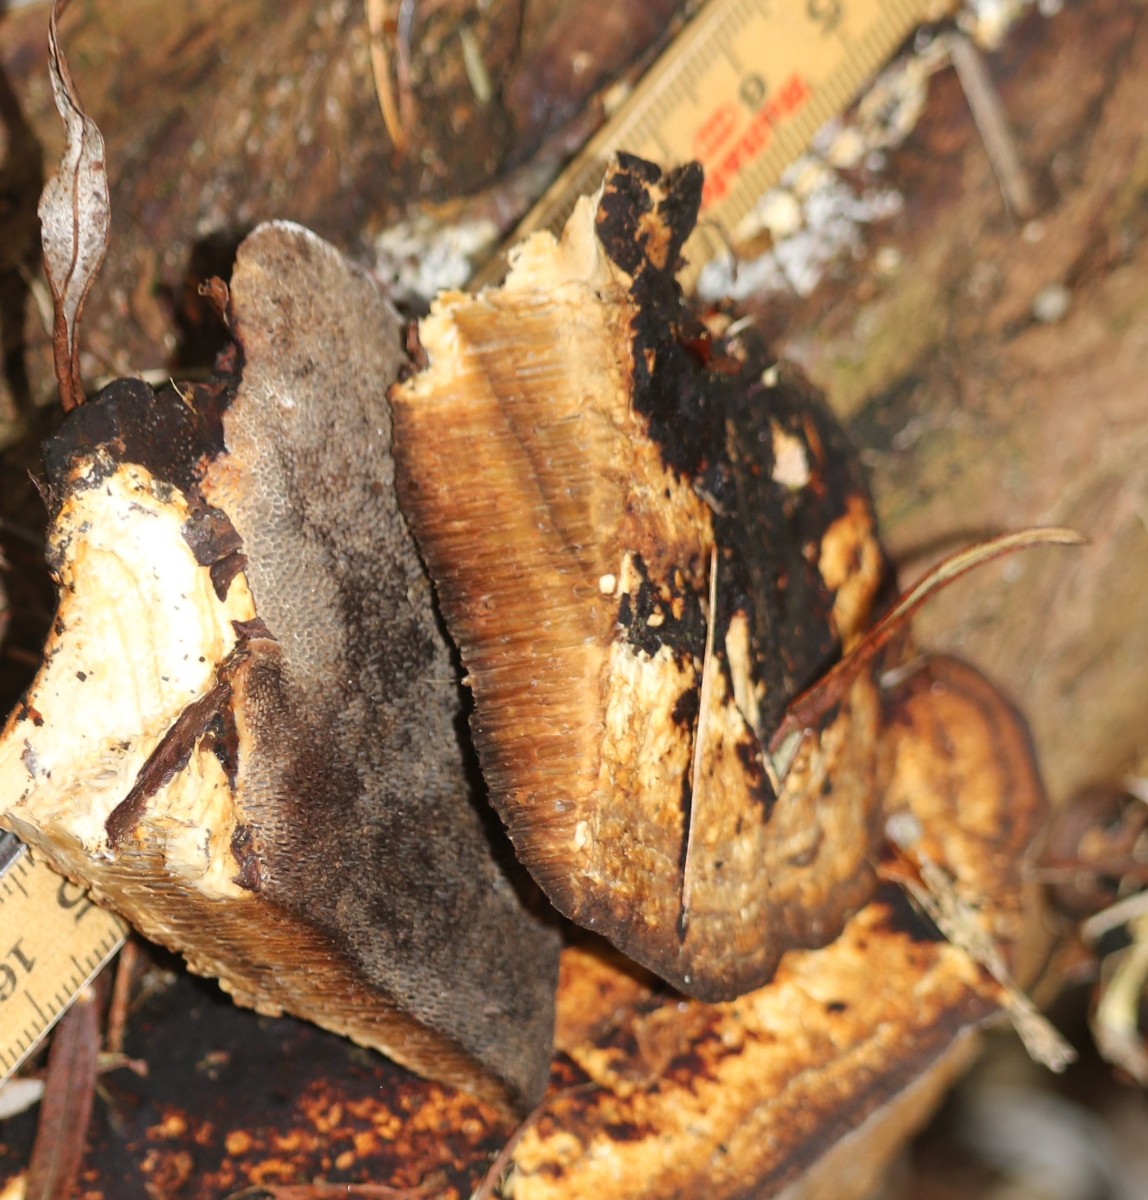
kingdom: Fungi
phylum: Basidiomycota
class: Agaricomycetes
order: Polyporales
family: Polyporaceae
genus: Daedaleopsis
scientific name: Daedaleopsis confragosa
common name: rødmende læderporesvamp
